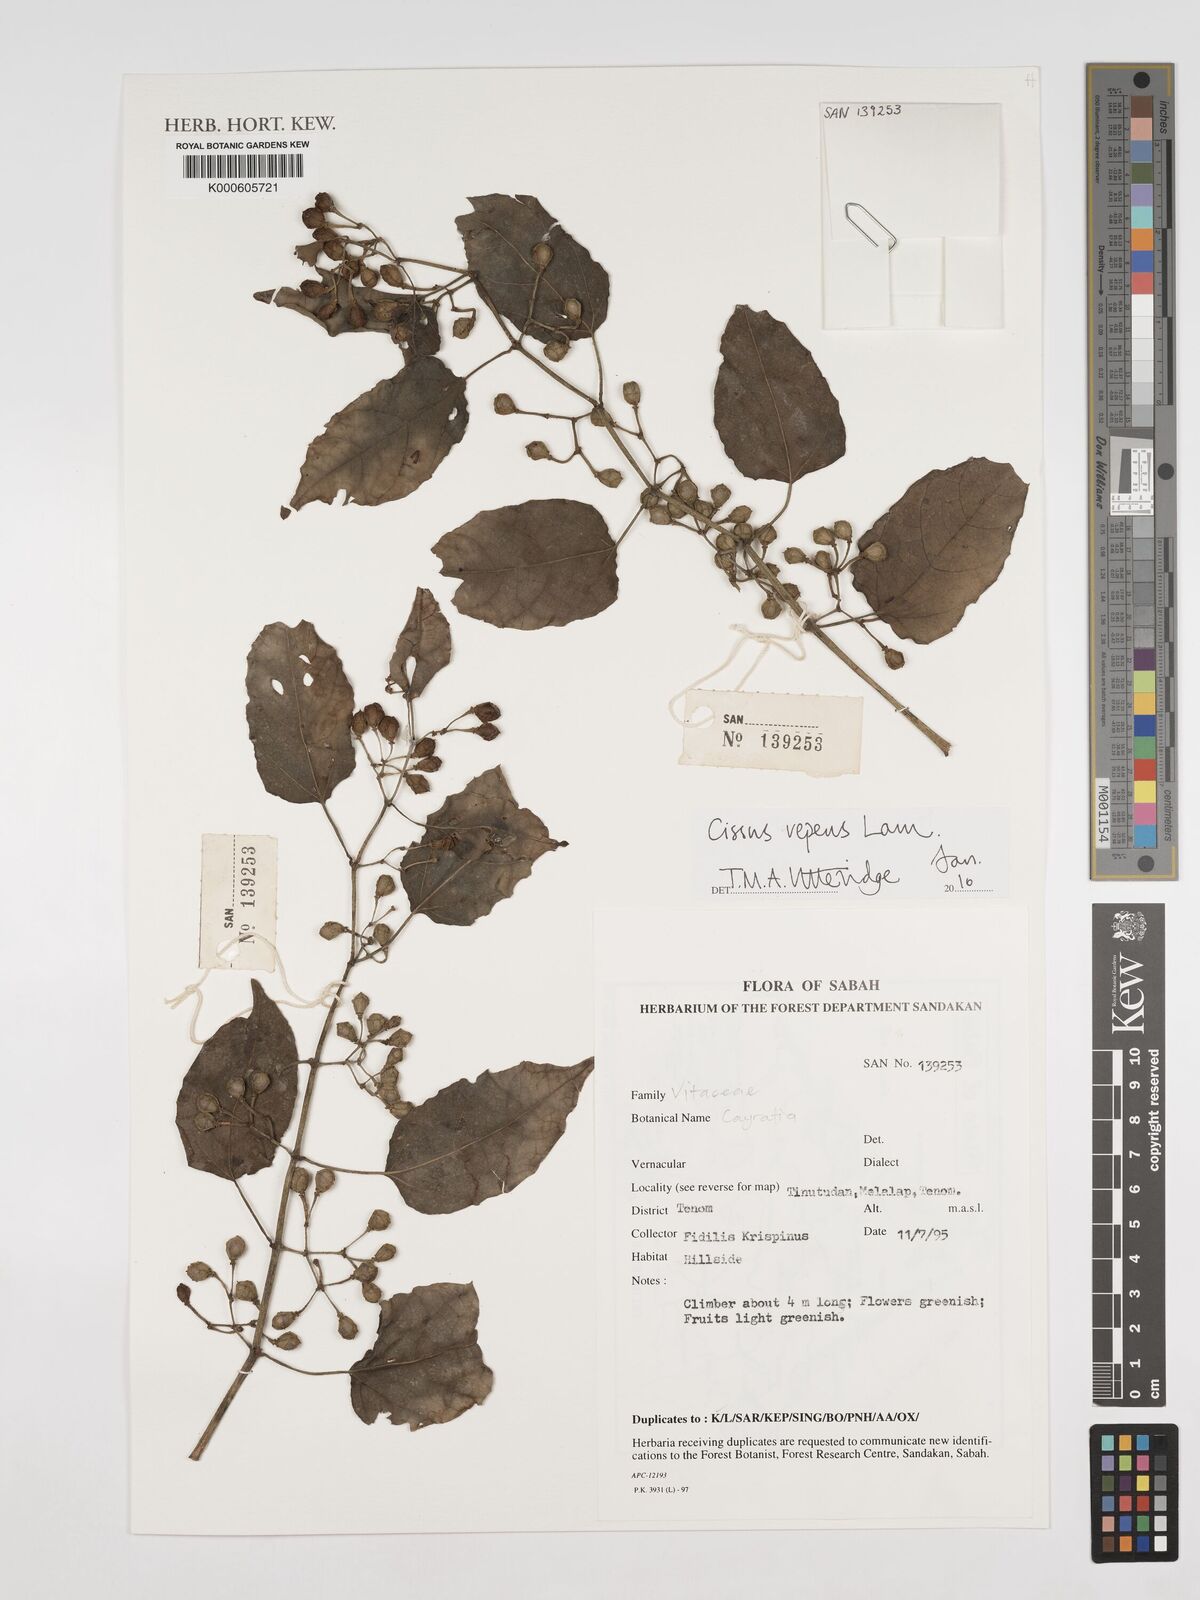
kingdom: Plantae
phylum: Tracheophyta
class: Magnoliopsida
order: Vitales
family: Vitaceae
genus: Cissus
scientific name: Cissus repens
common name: Cissus
